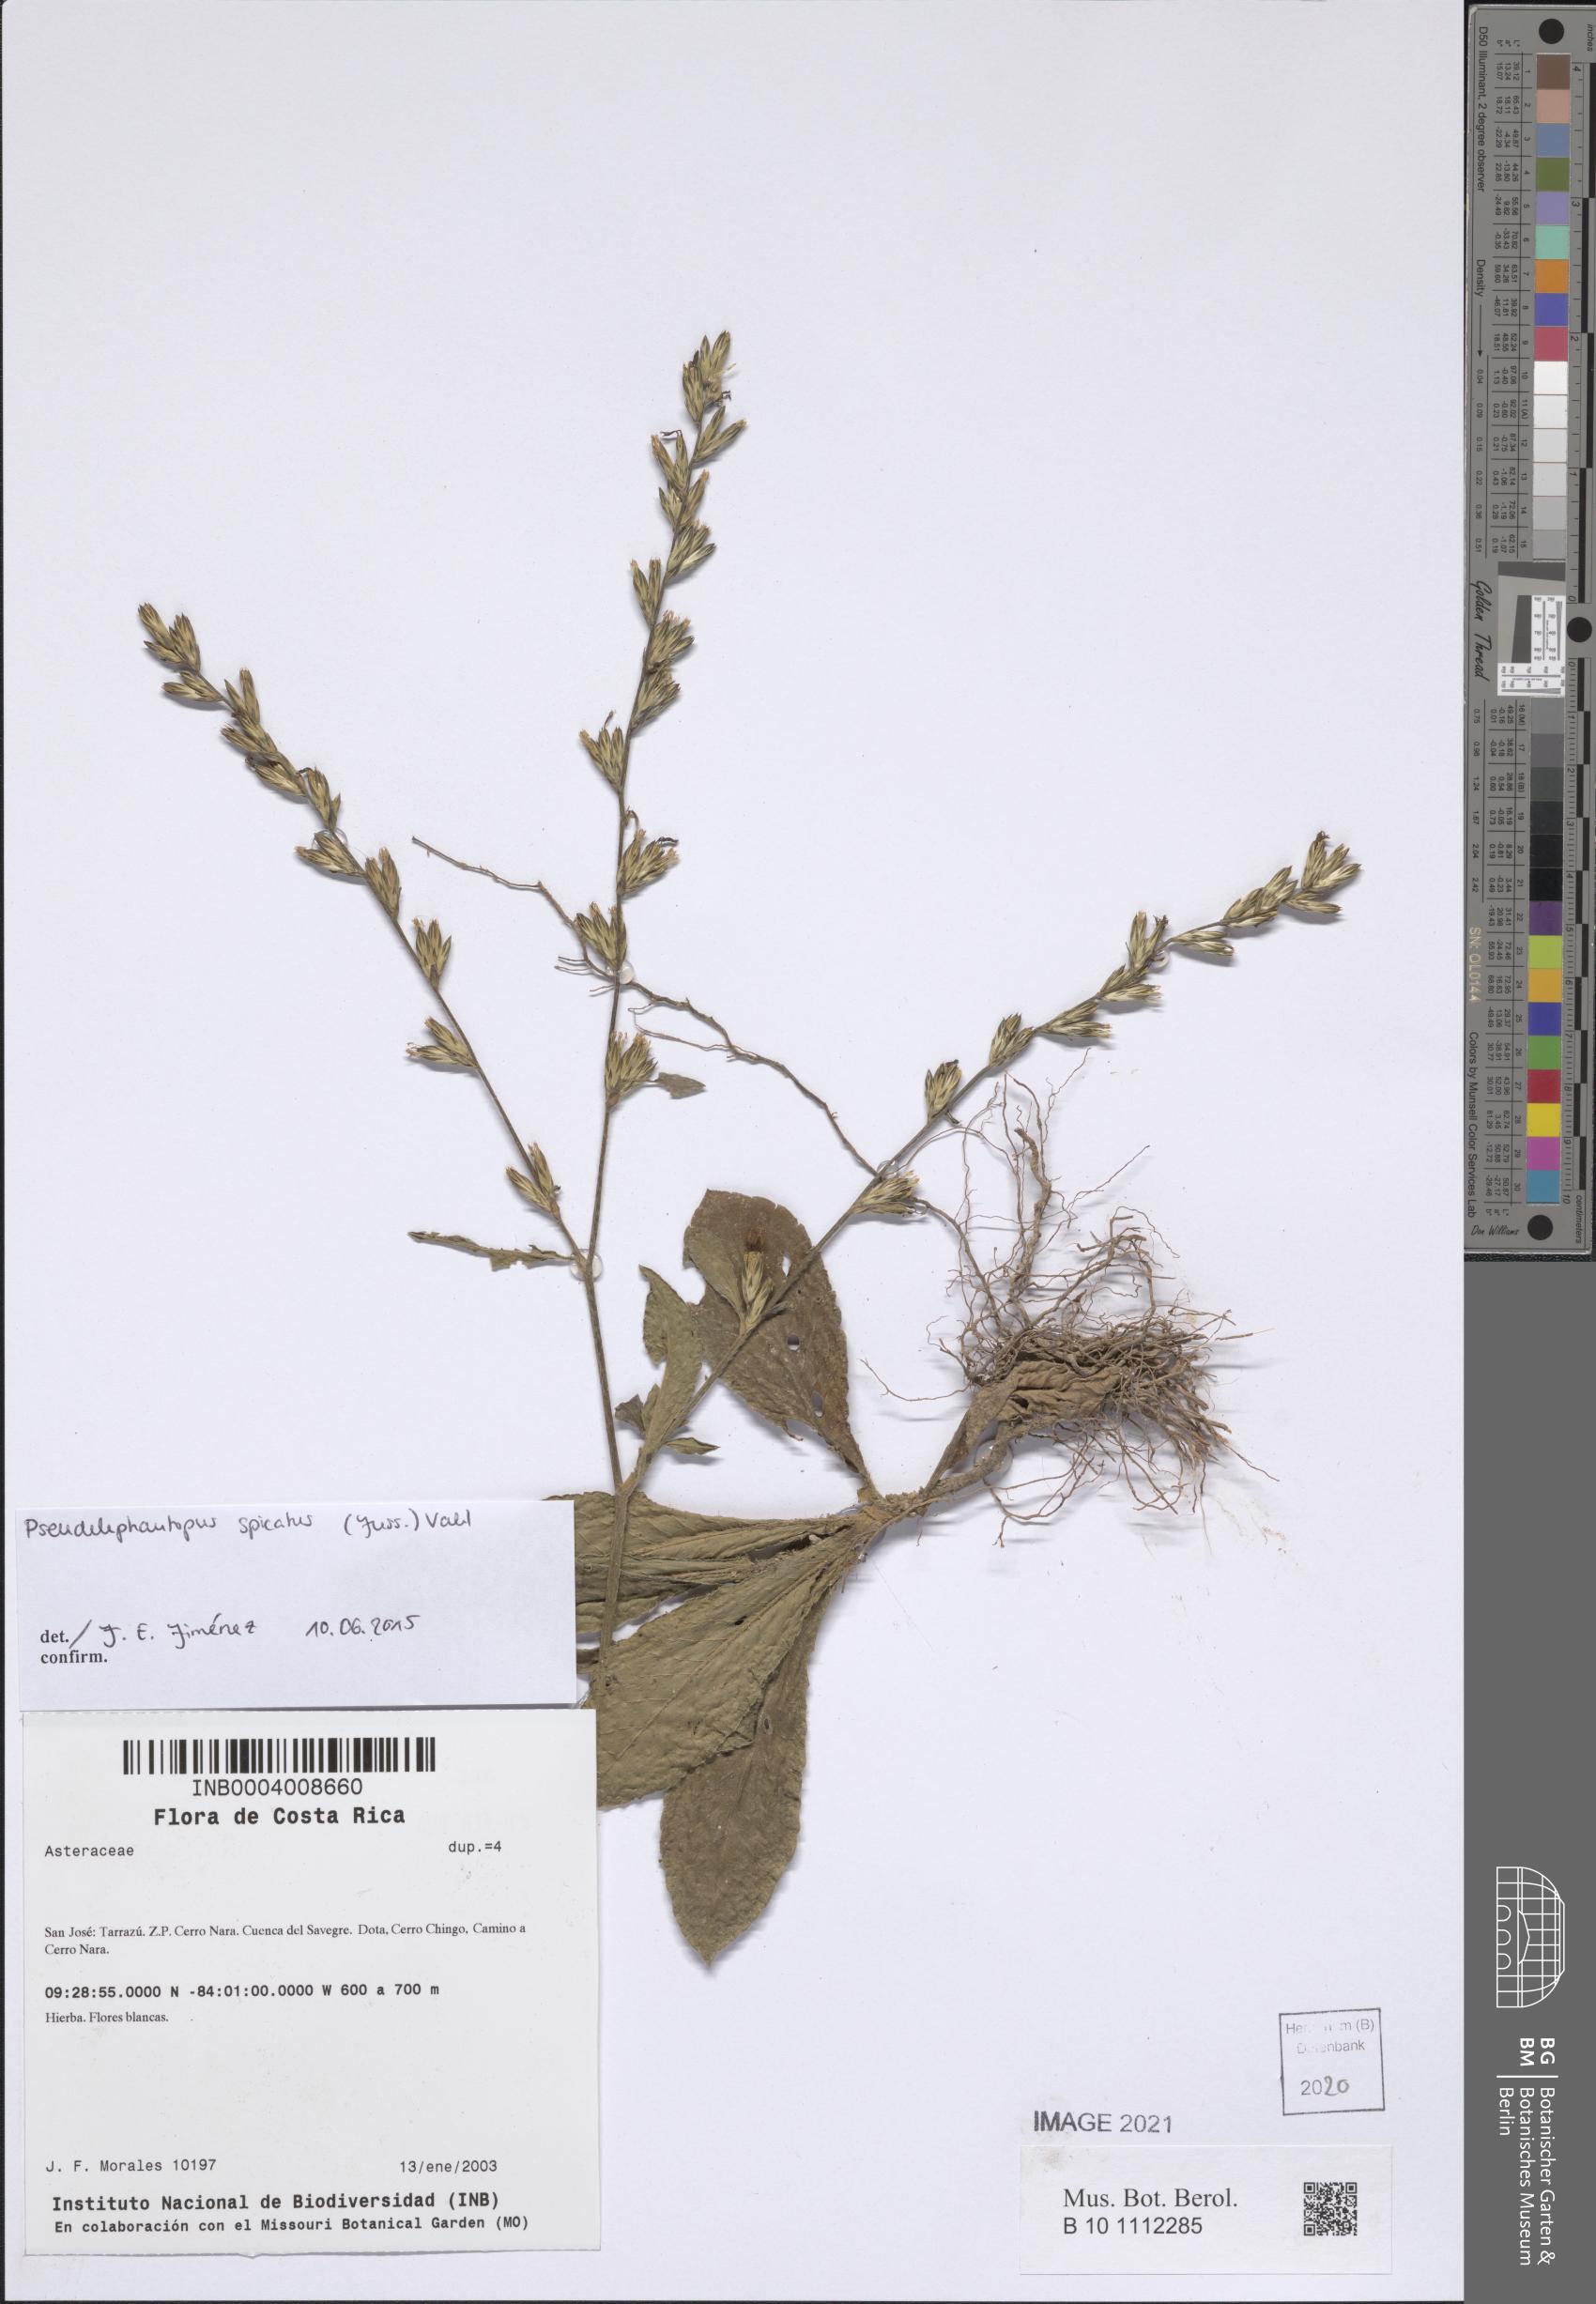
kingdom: Plantae
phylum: Tracheophyta
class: Magnoliopsida
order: Asterales
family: Asteraceae
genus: Pseudelephantopus
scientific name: Pseudelephantopus spicatus
